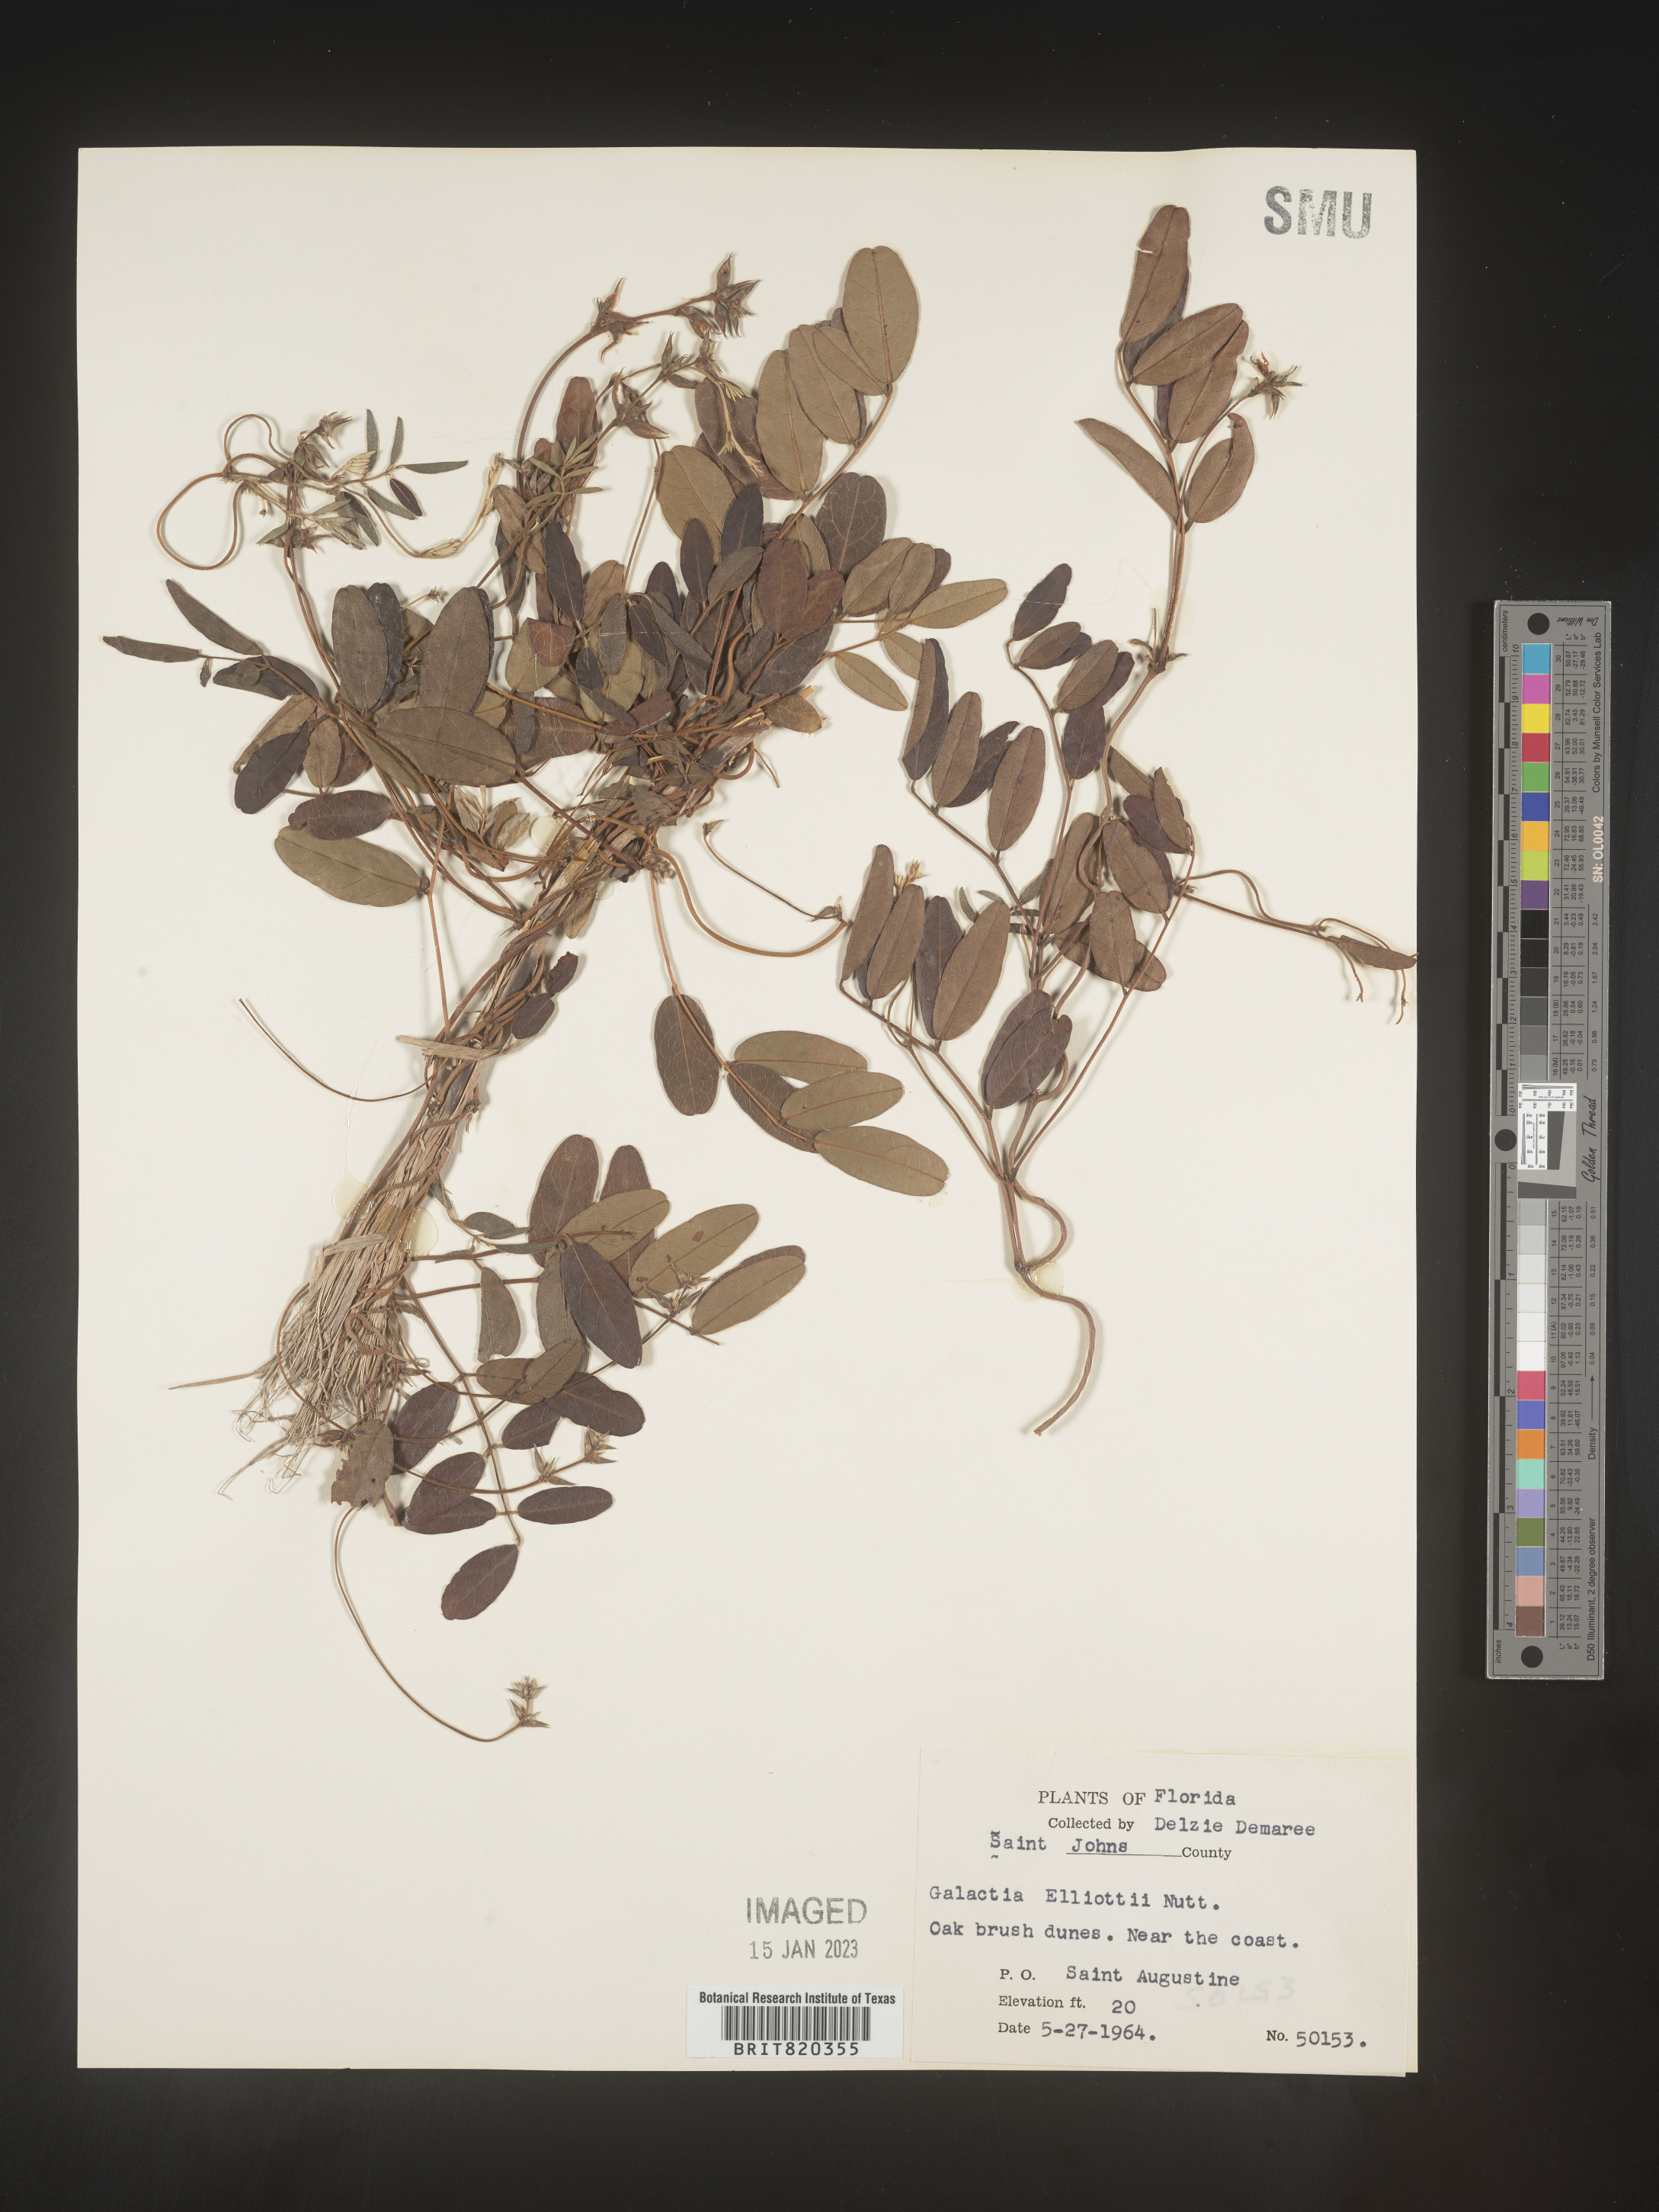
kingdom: Plantae
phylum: Tracheophyta
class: Magnoliopsida
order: Fabales
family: Fabaceae
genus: Galactia
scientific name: Galactia elliottii
